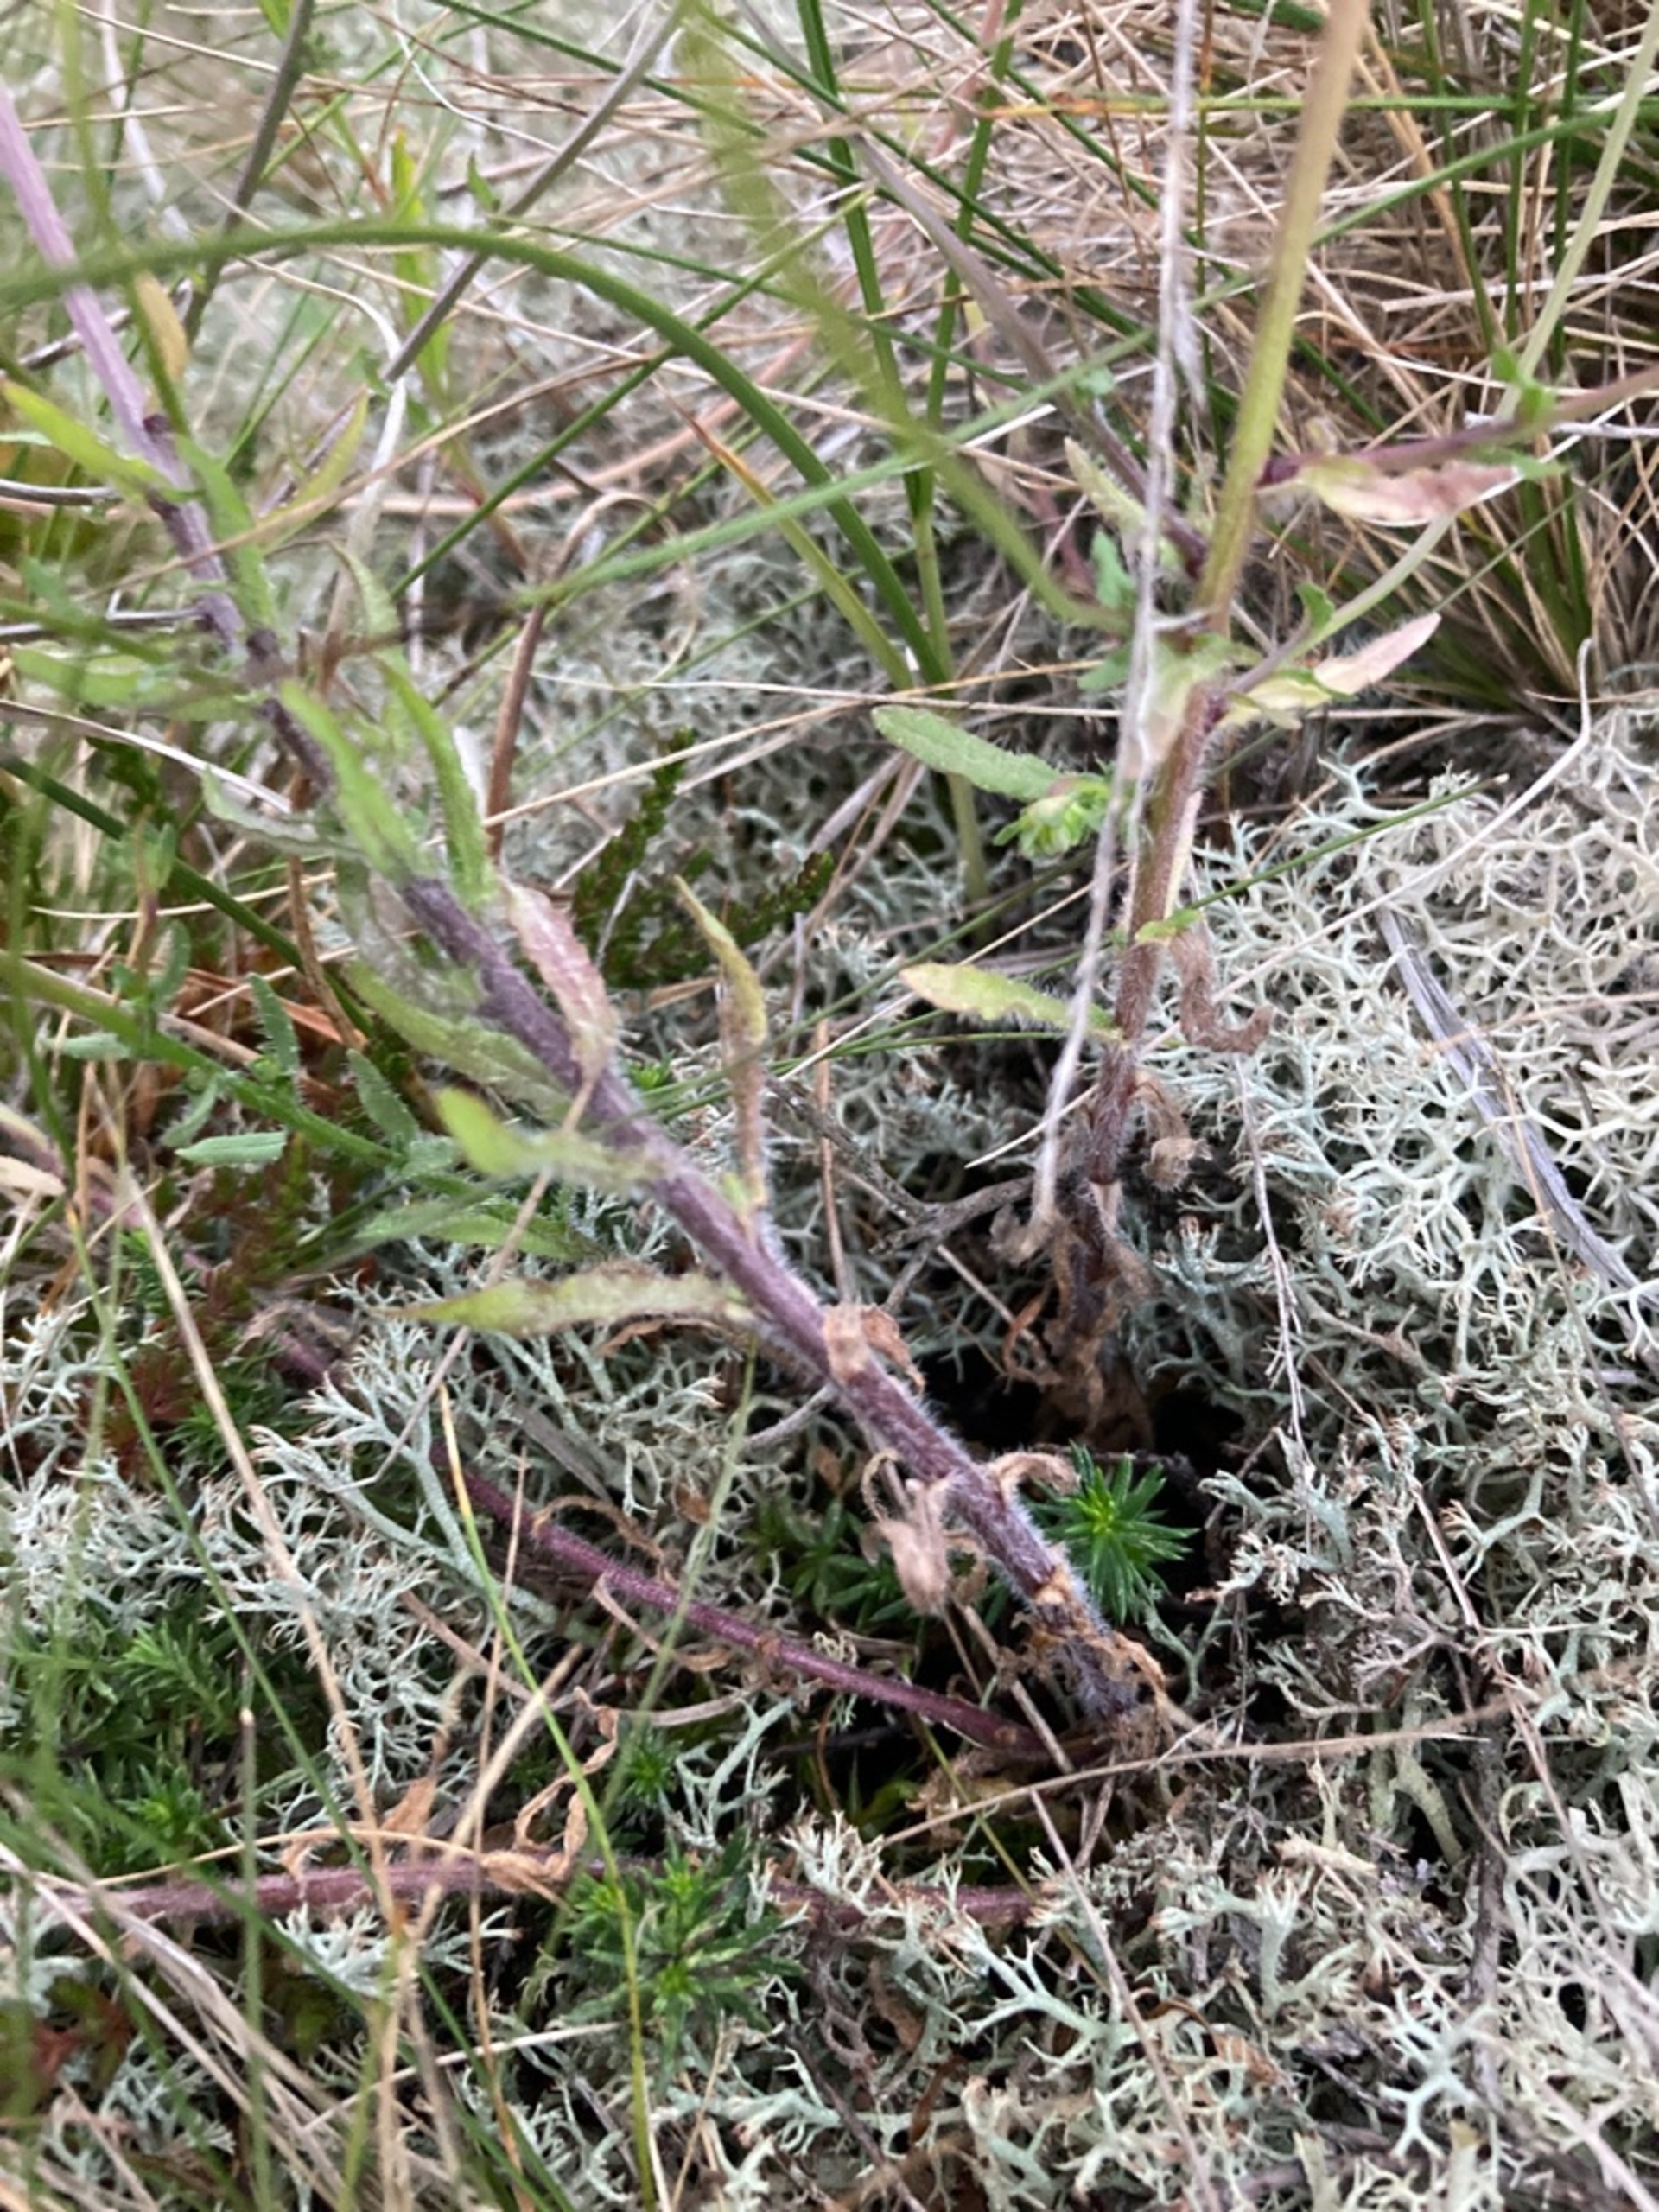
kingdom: Plantae
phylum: Tracheophyta
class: Magnoliopsida
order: Asterales
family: Campanulaceae
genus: Jasione
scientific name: Jasione montana
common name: Blåmunke
